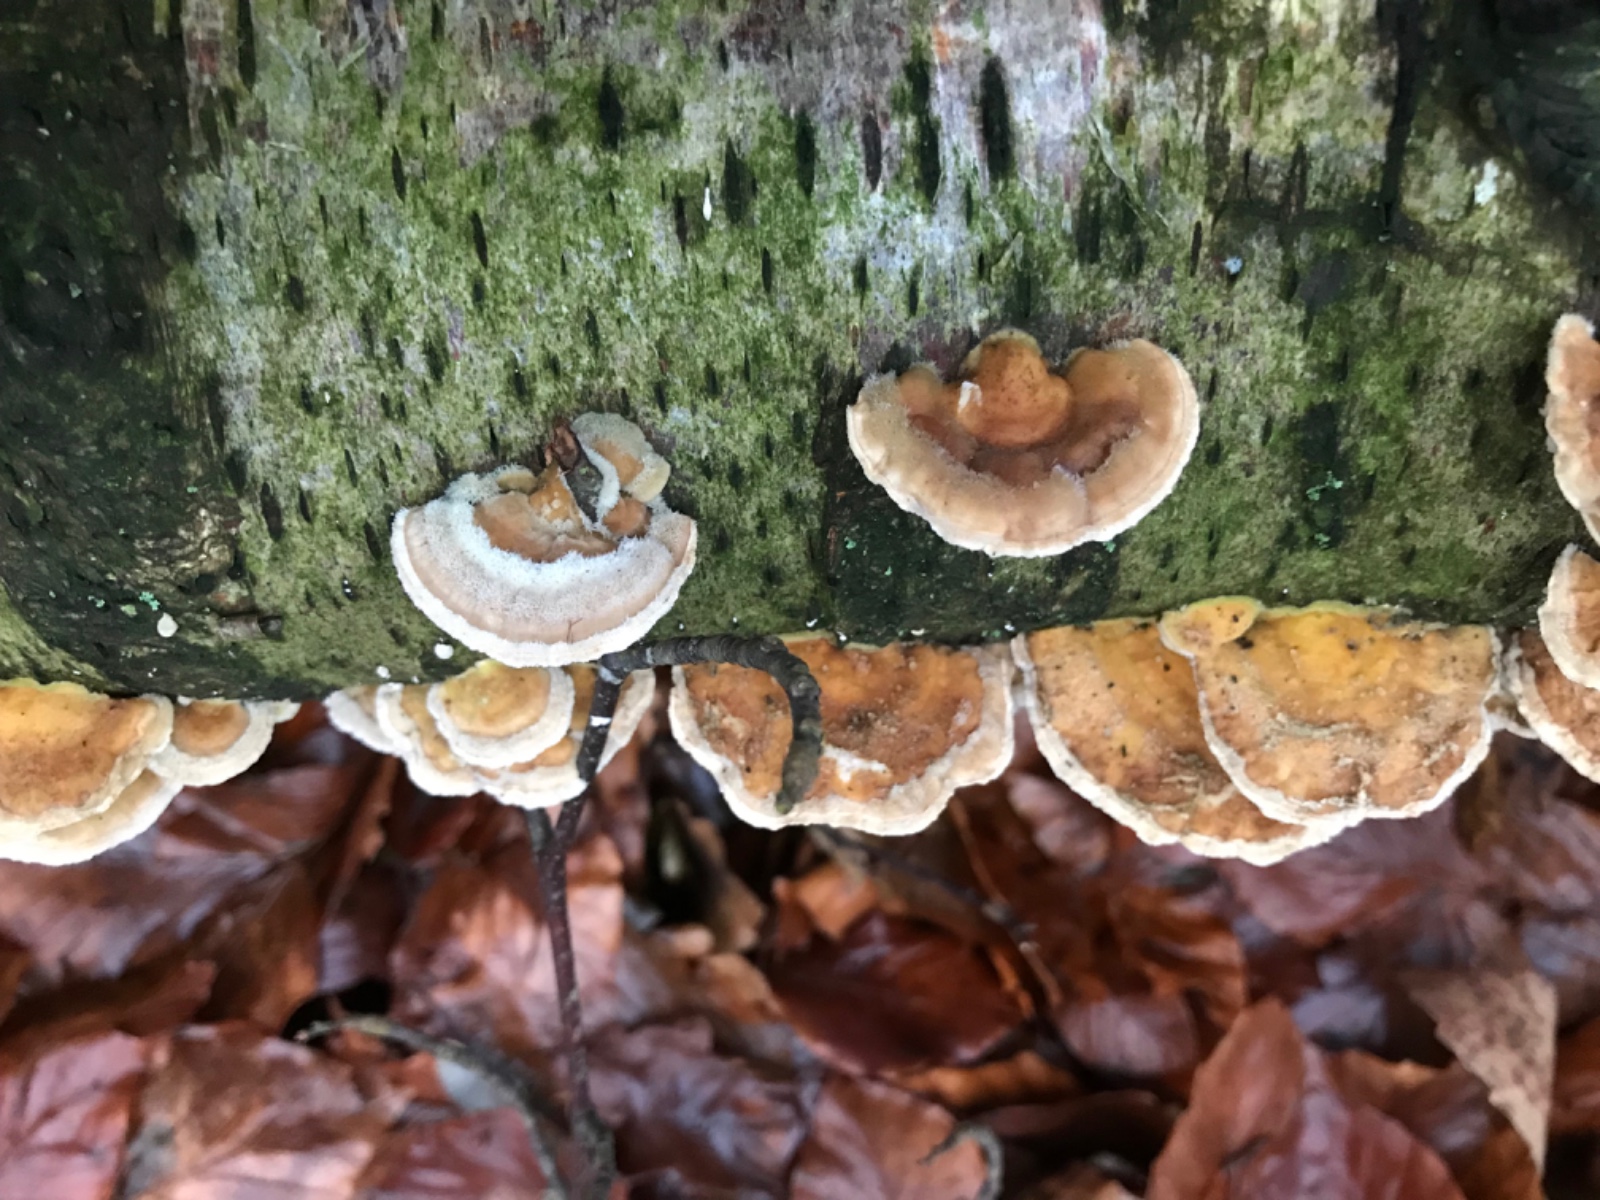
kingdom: Fungi
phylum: Basidiomycota
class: Agaricomycetes
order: Polyporales
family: Polyporaceae
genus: Trametes
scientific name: Trametes ochracea
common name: bæltet læderporesvamp
